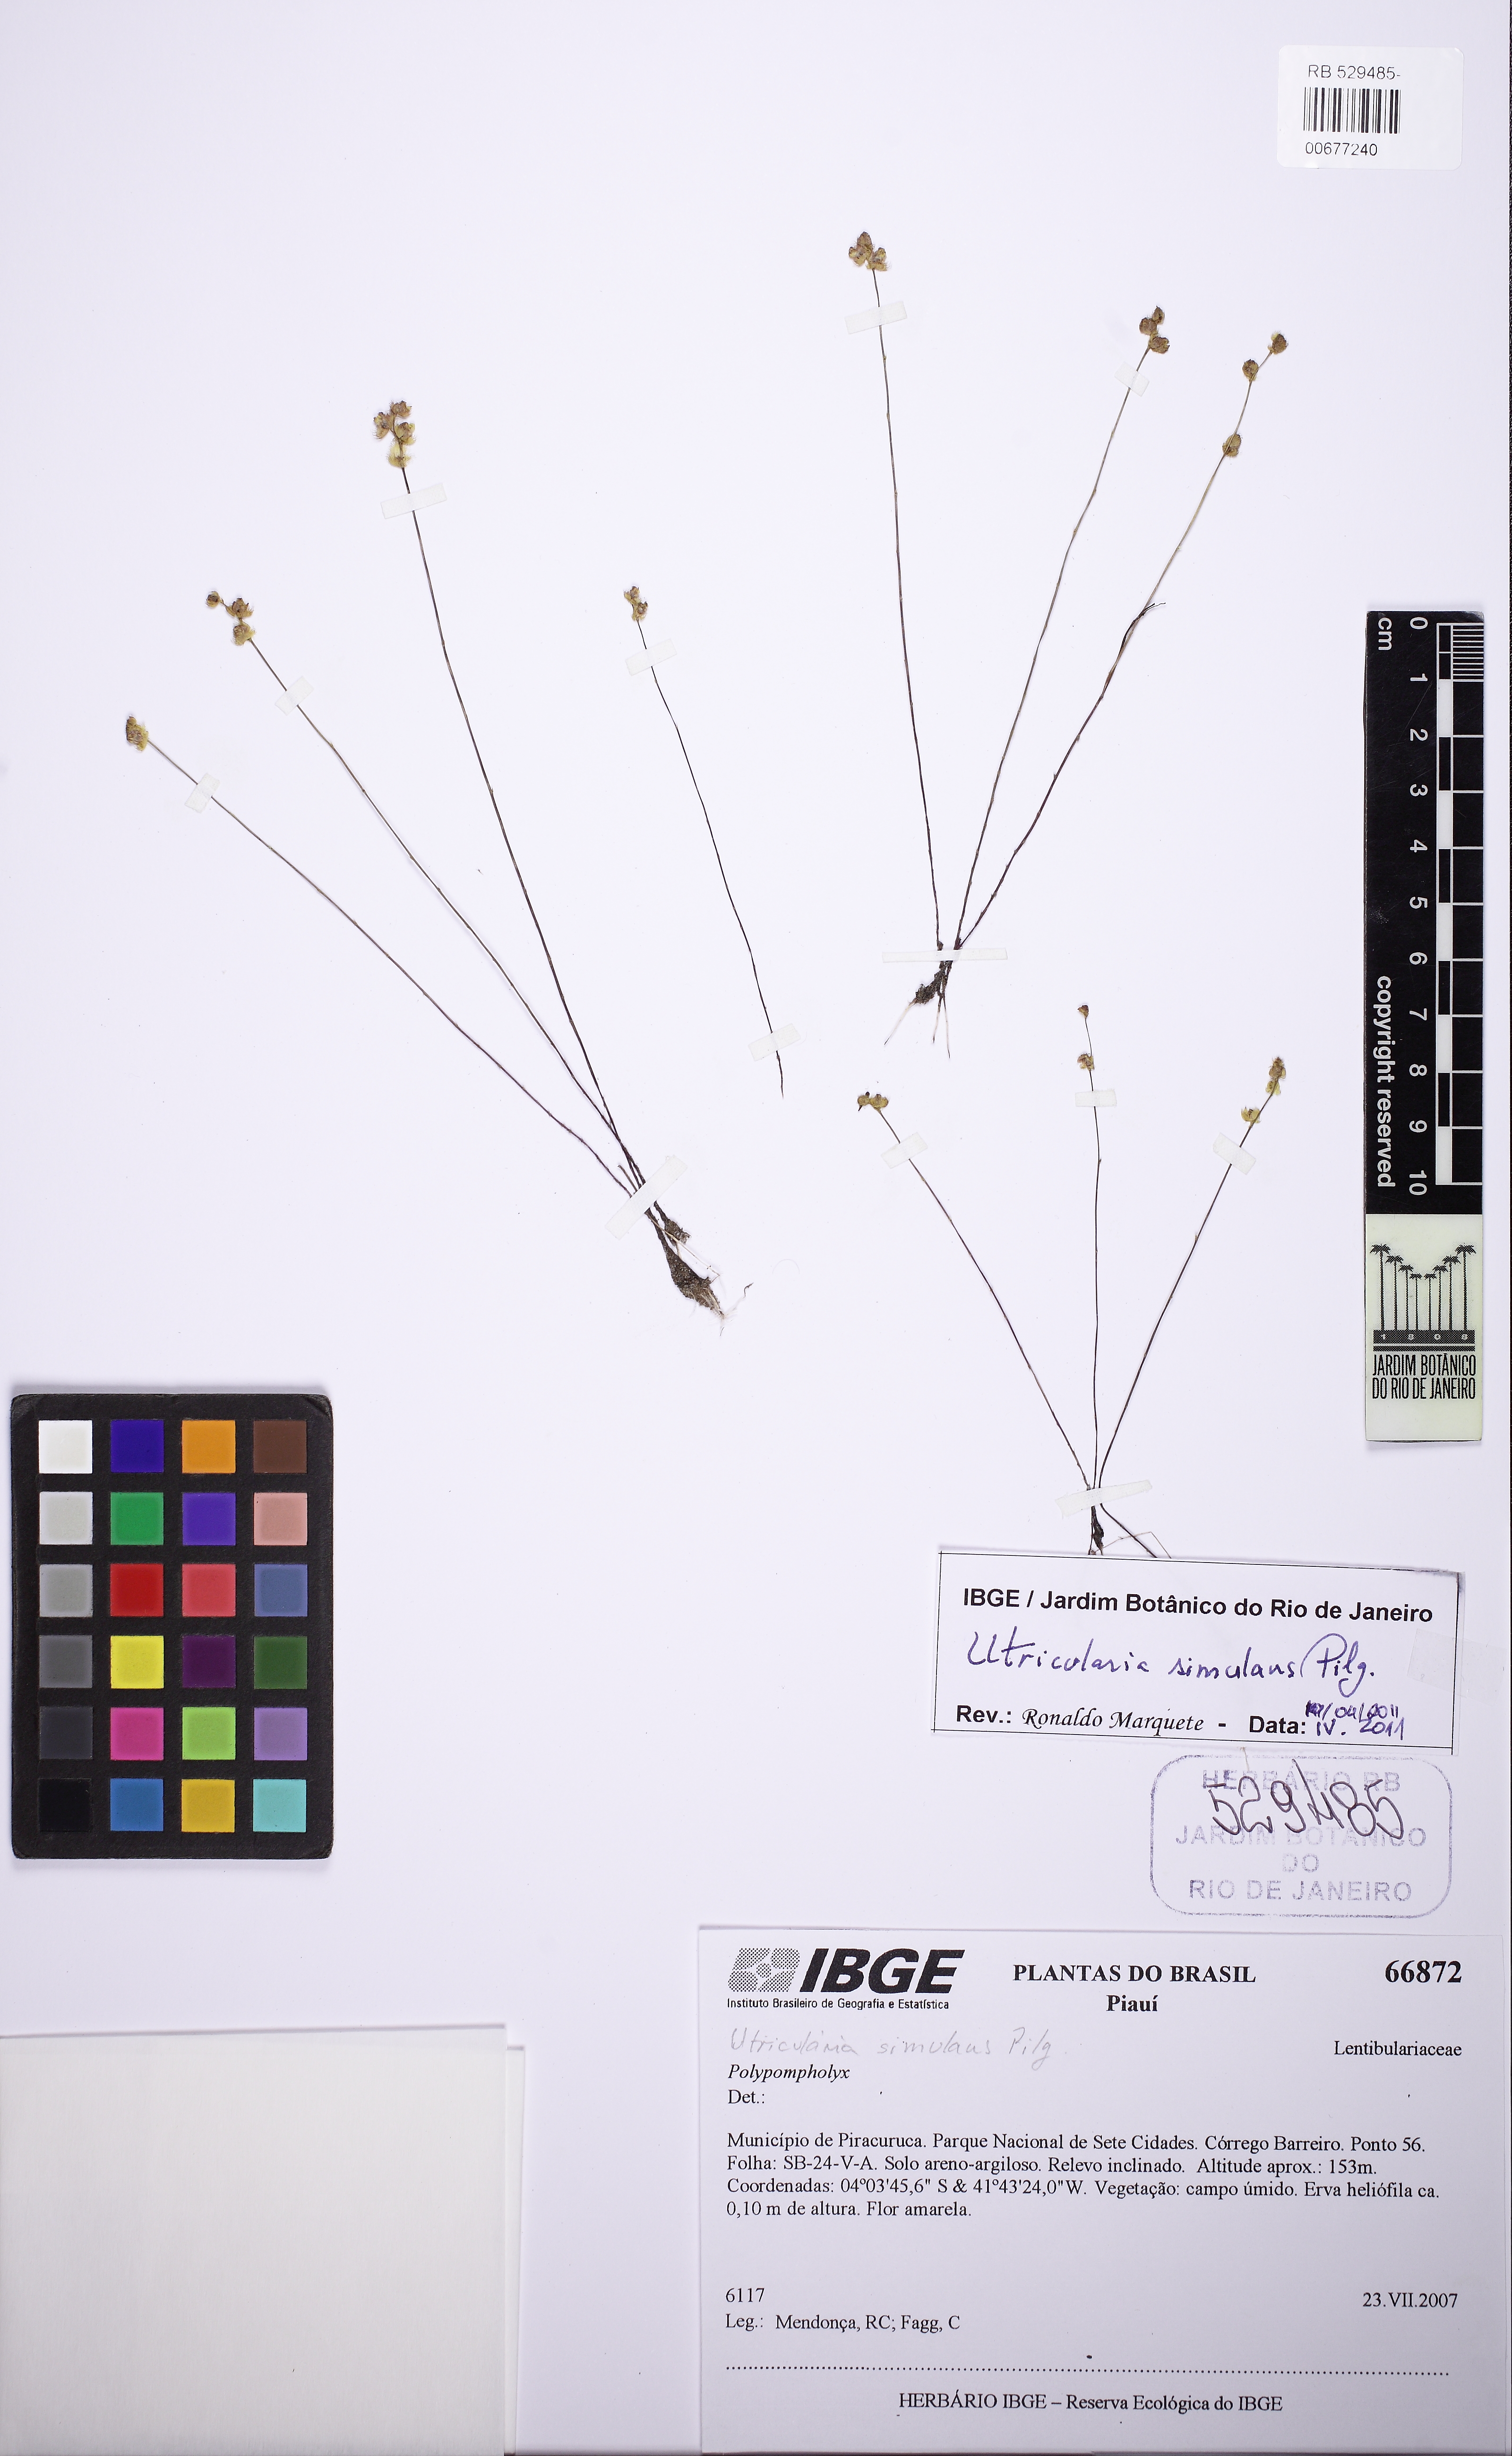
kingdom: Plantae
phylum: Tracheophyta
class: Magnoliopsida
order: Lamiales
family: Lentibulariaceae
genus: Utricularia
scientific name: Utricularia simulans
